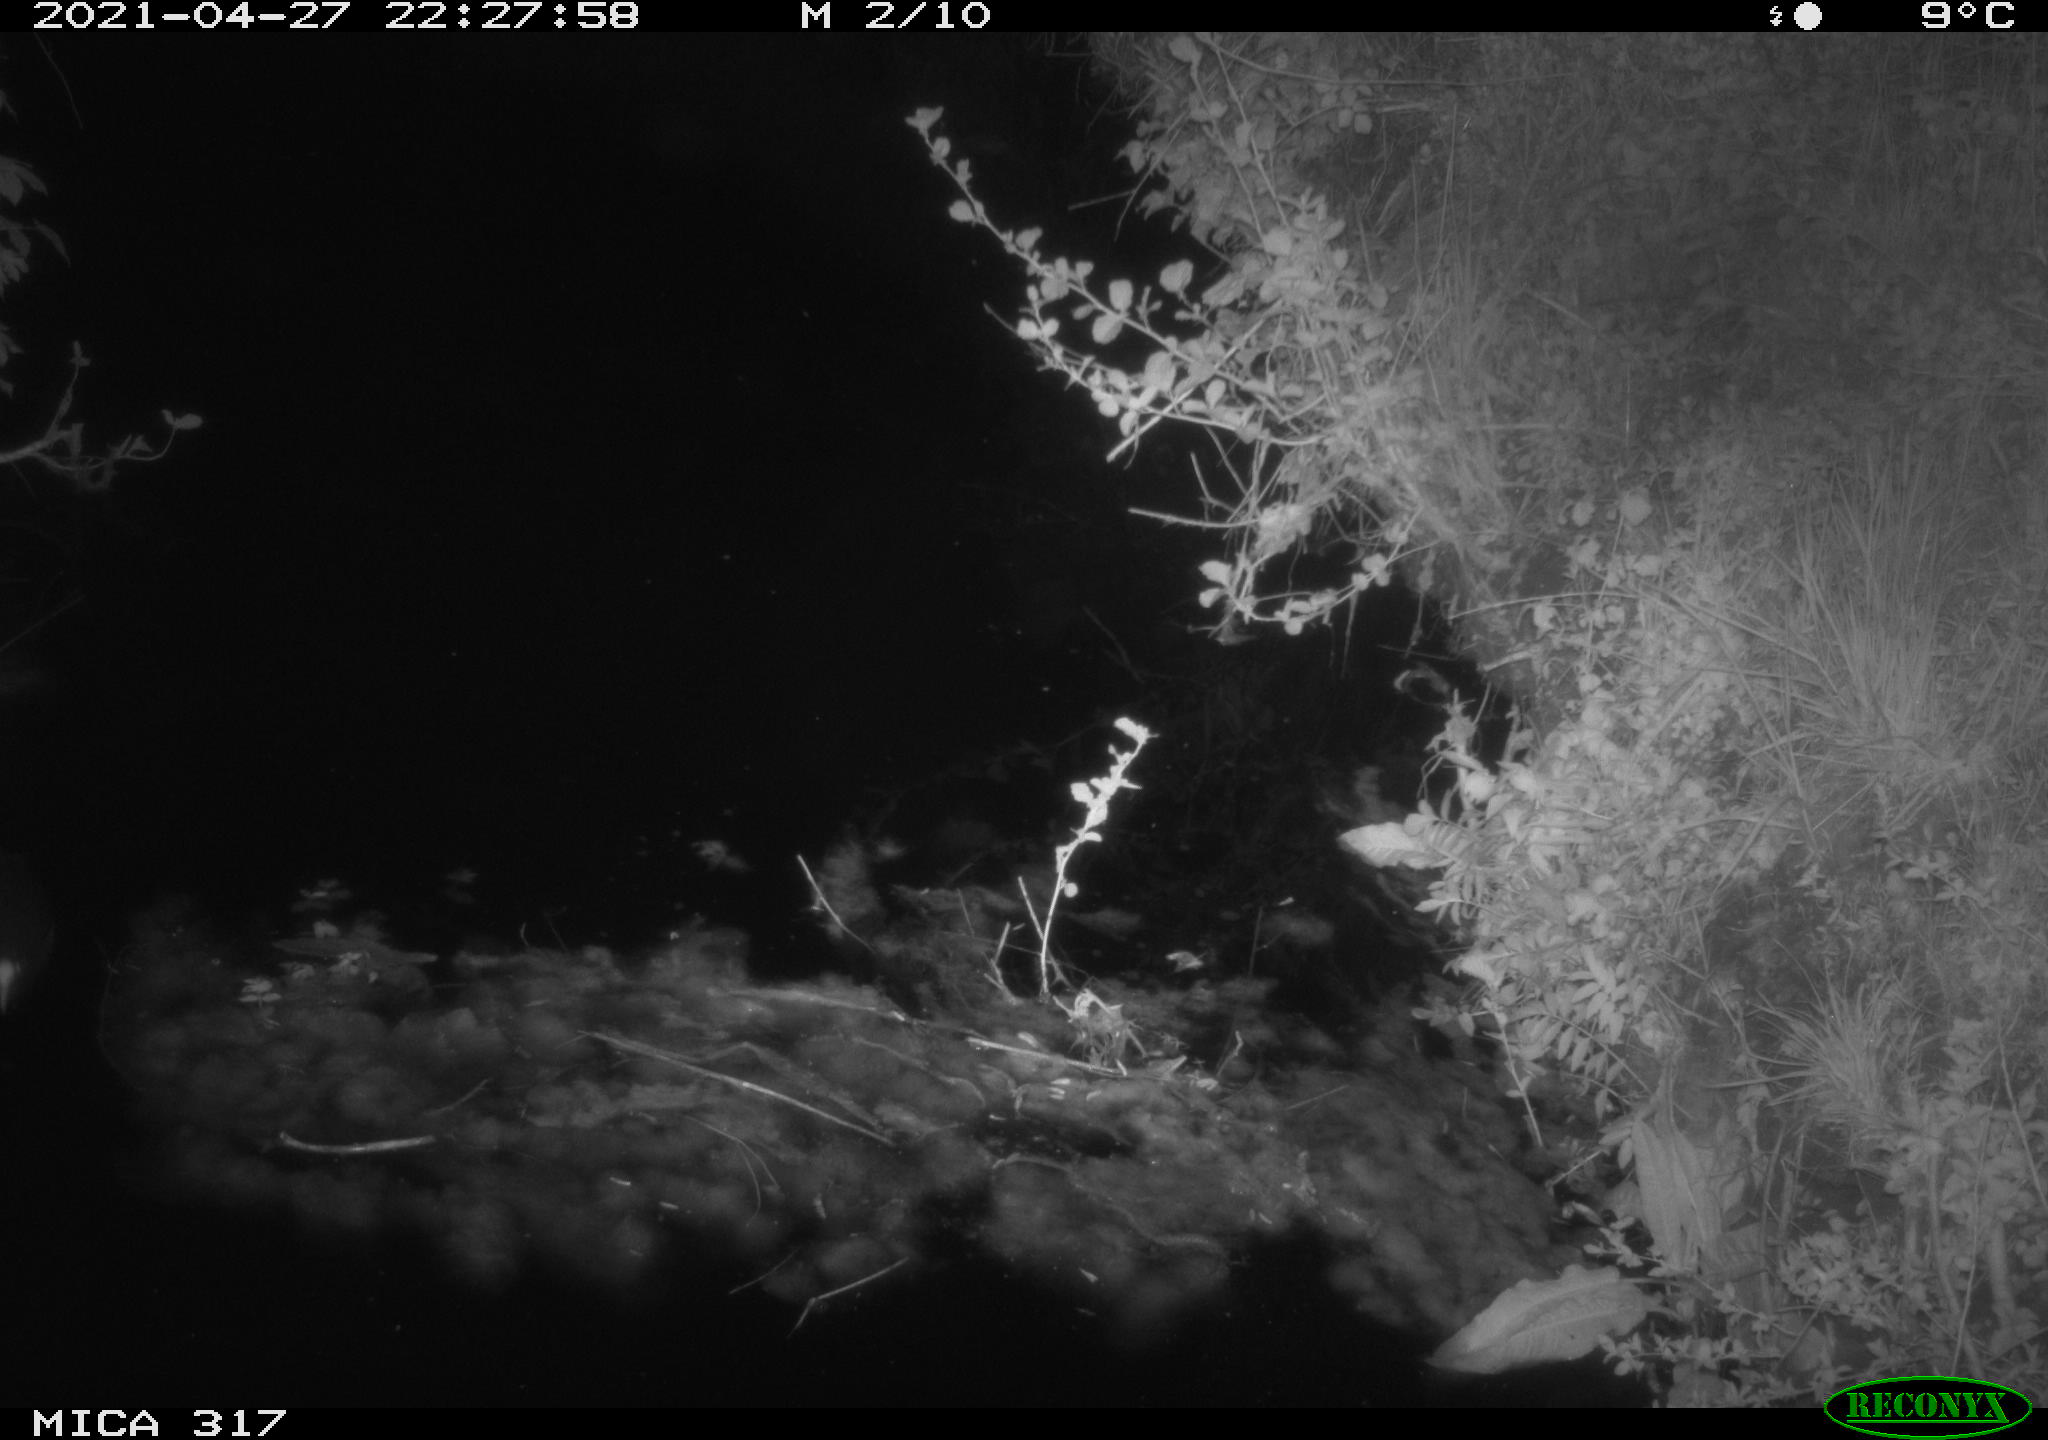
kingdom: Animalia
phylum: Chordata
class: Aves
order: Gruiformes
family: Rallidae
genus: Fulica
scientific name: Fulica atra
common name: Eurasian coot
